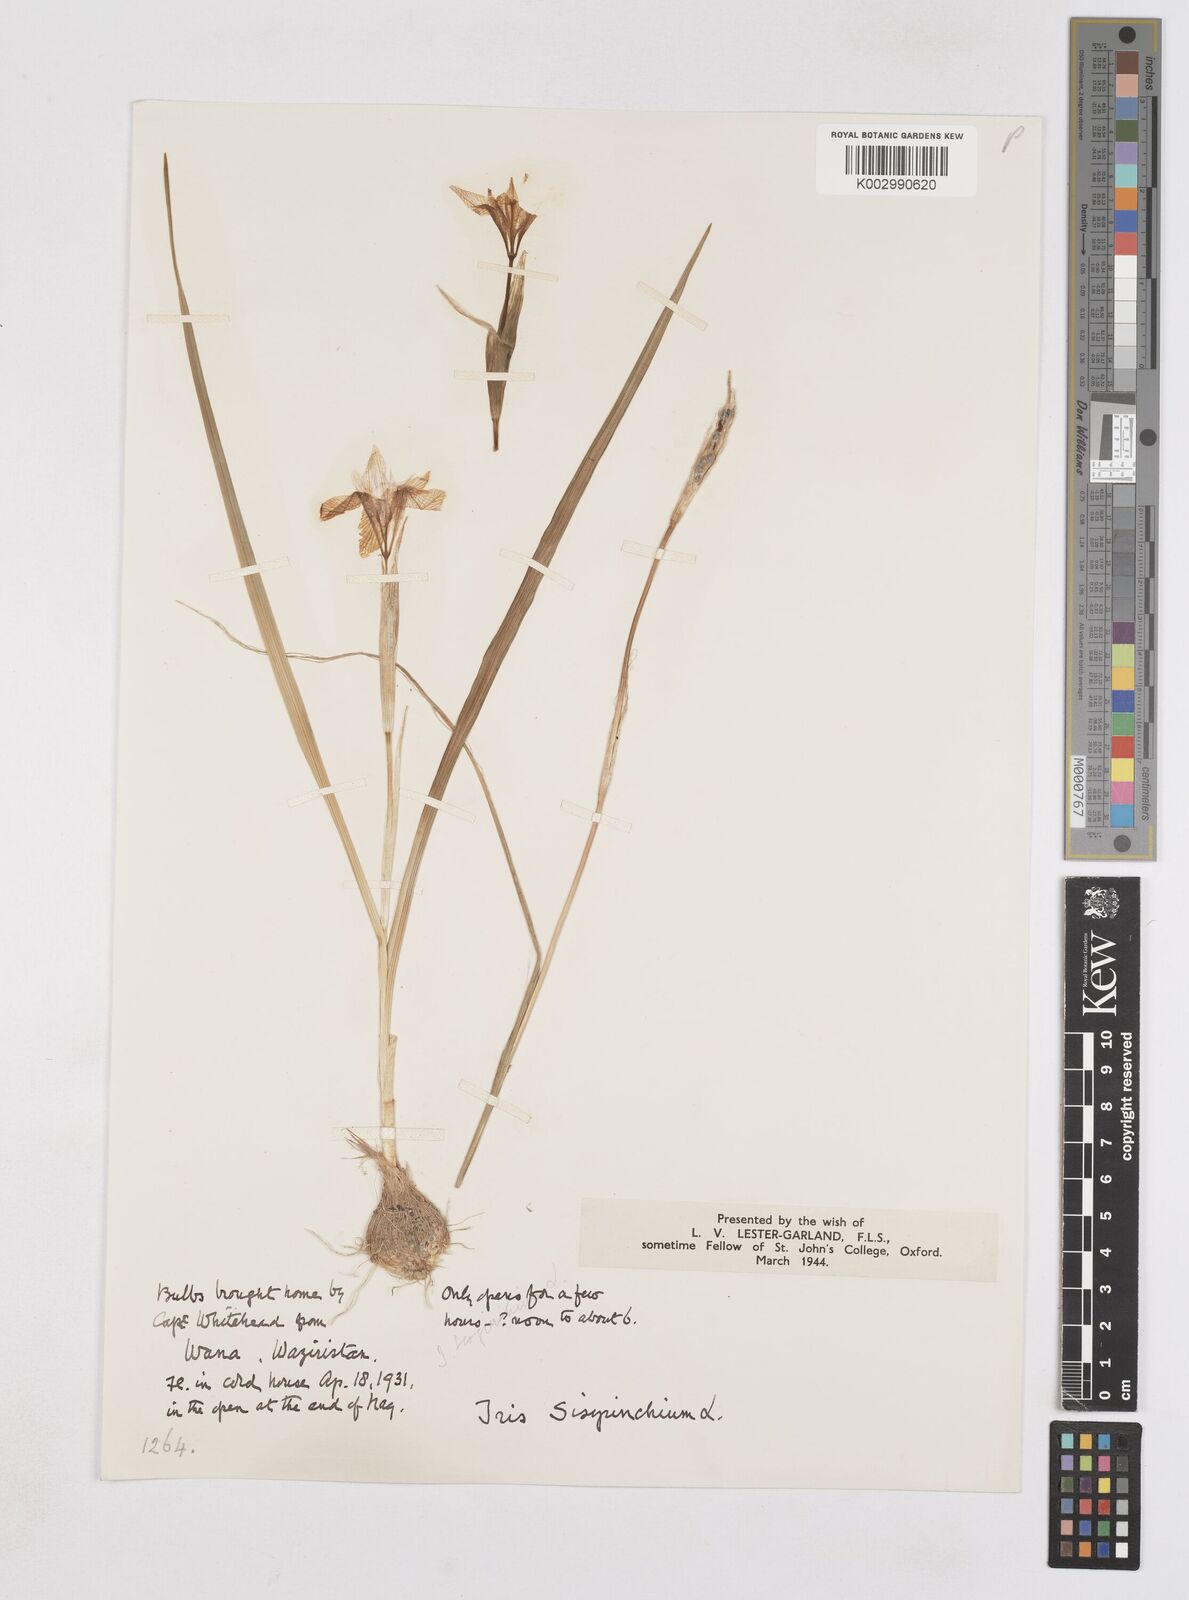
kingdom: Plantae
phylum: Tracheophyta
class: Liliopsida
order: Asparagales
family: Iridaceae
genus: Moraea
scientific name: Moraea sisyrinchium
